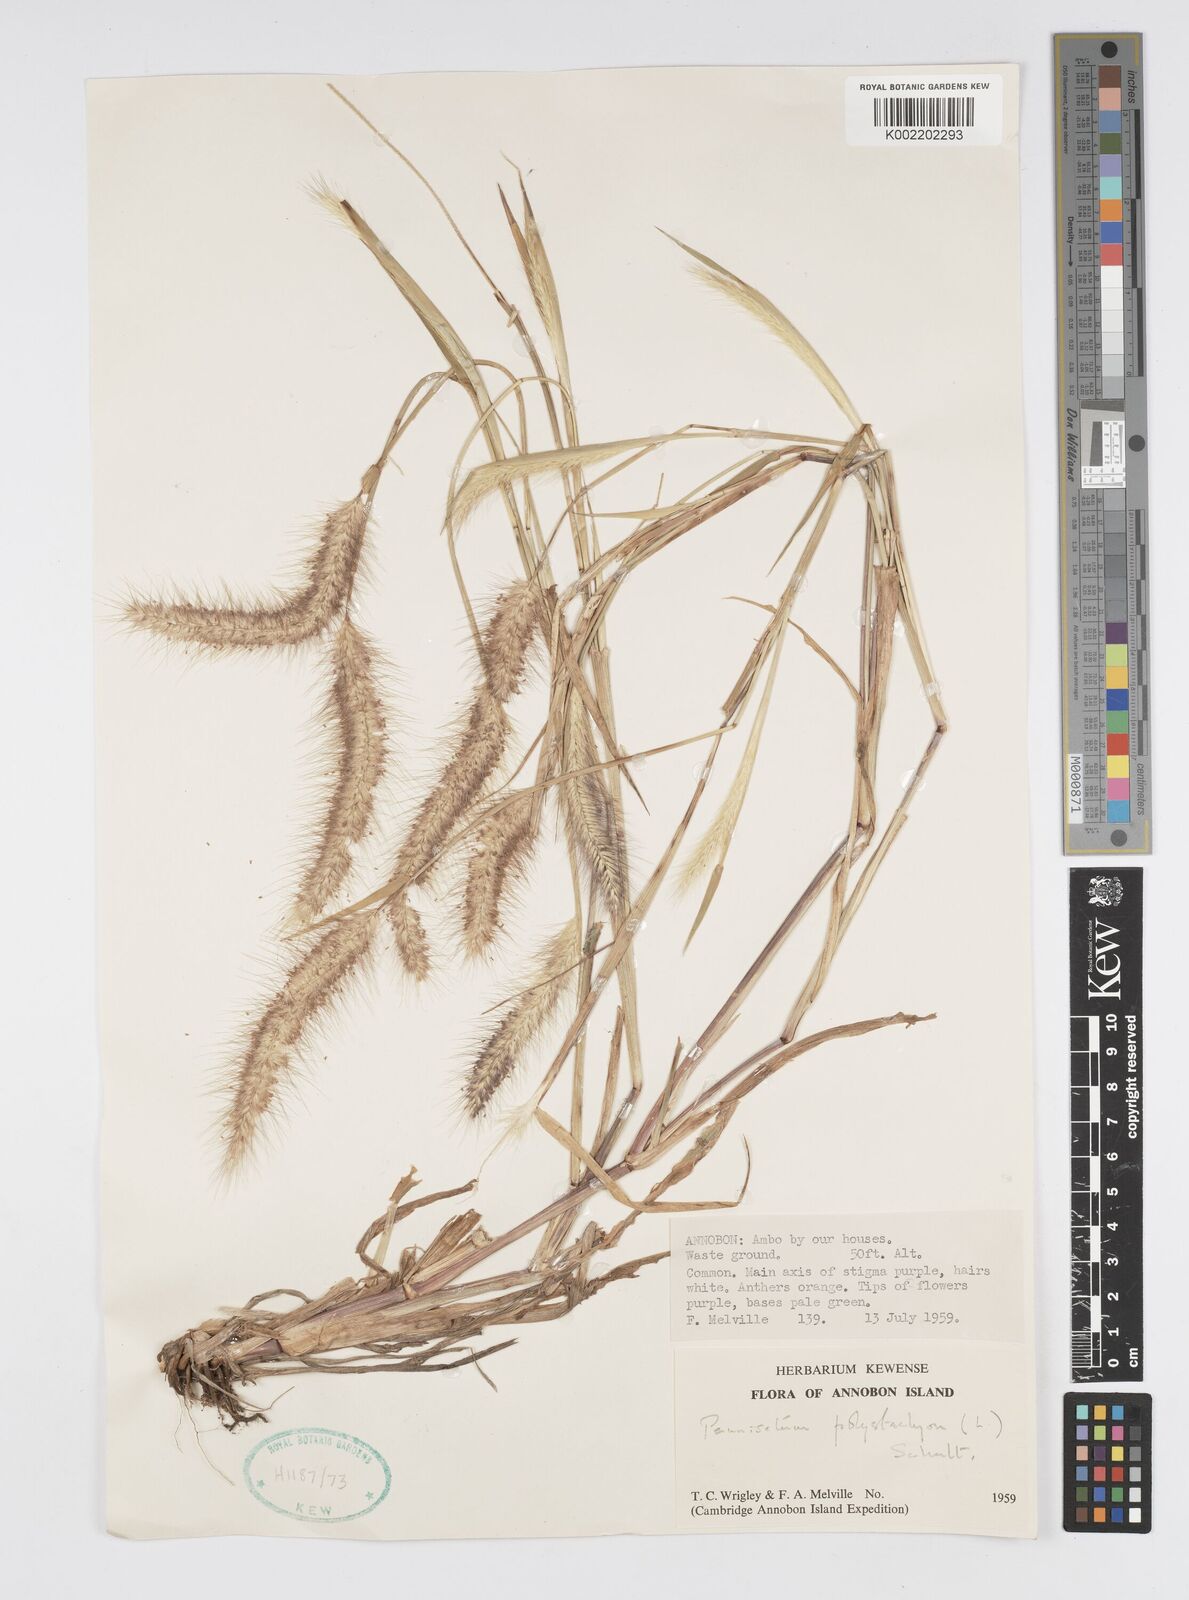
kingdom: Plantae
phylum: Tracheophyta
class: Liliopsida
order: Poales
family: Poaceae
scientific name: Poaceae
